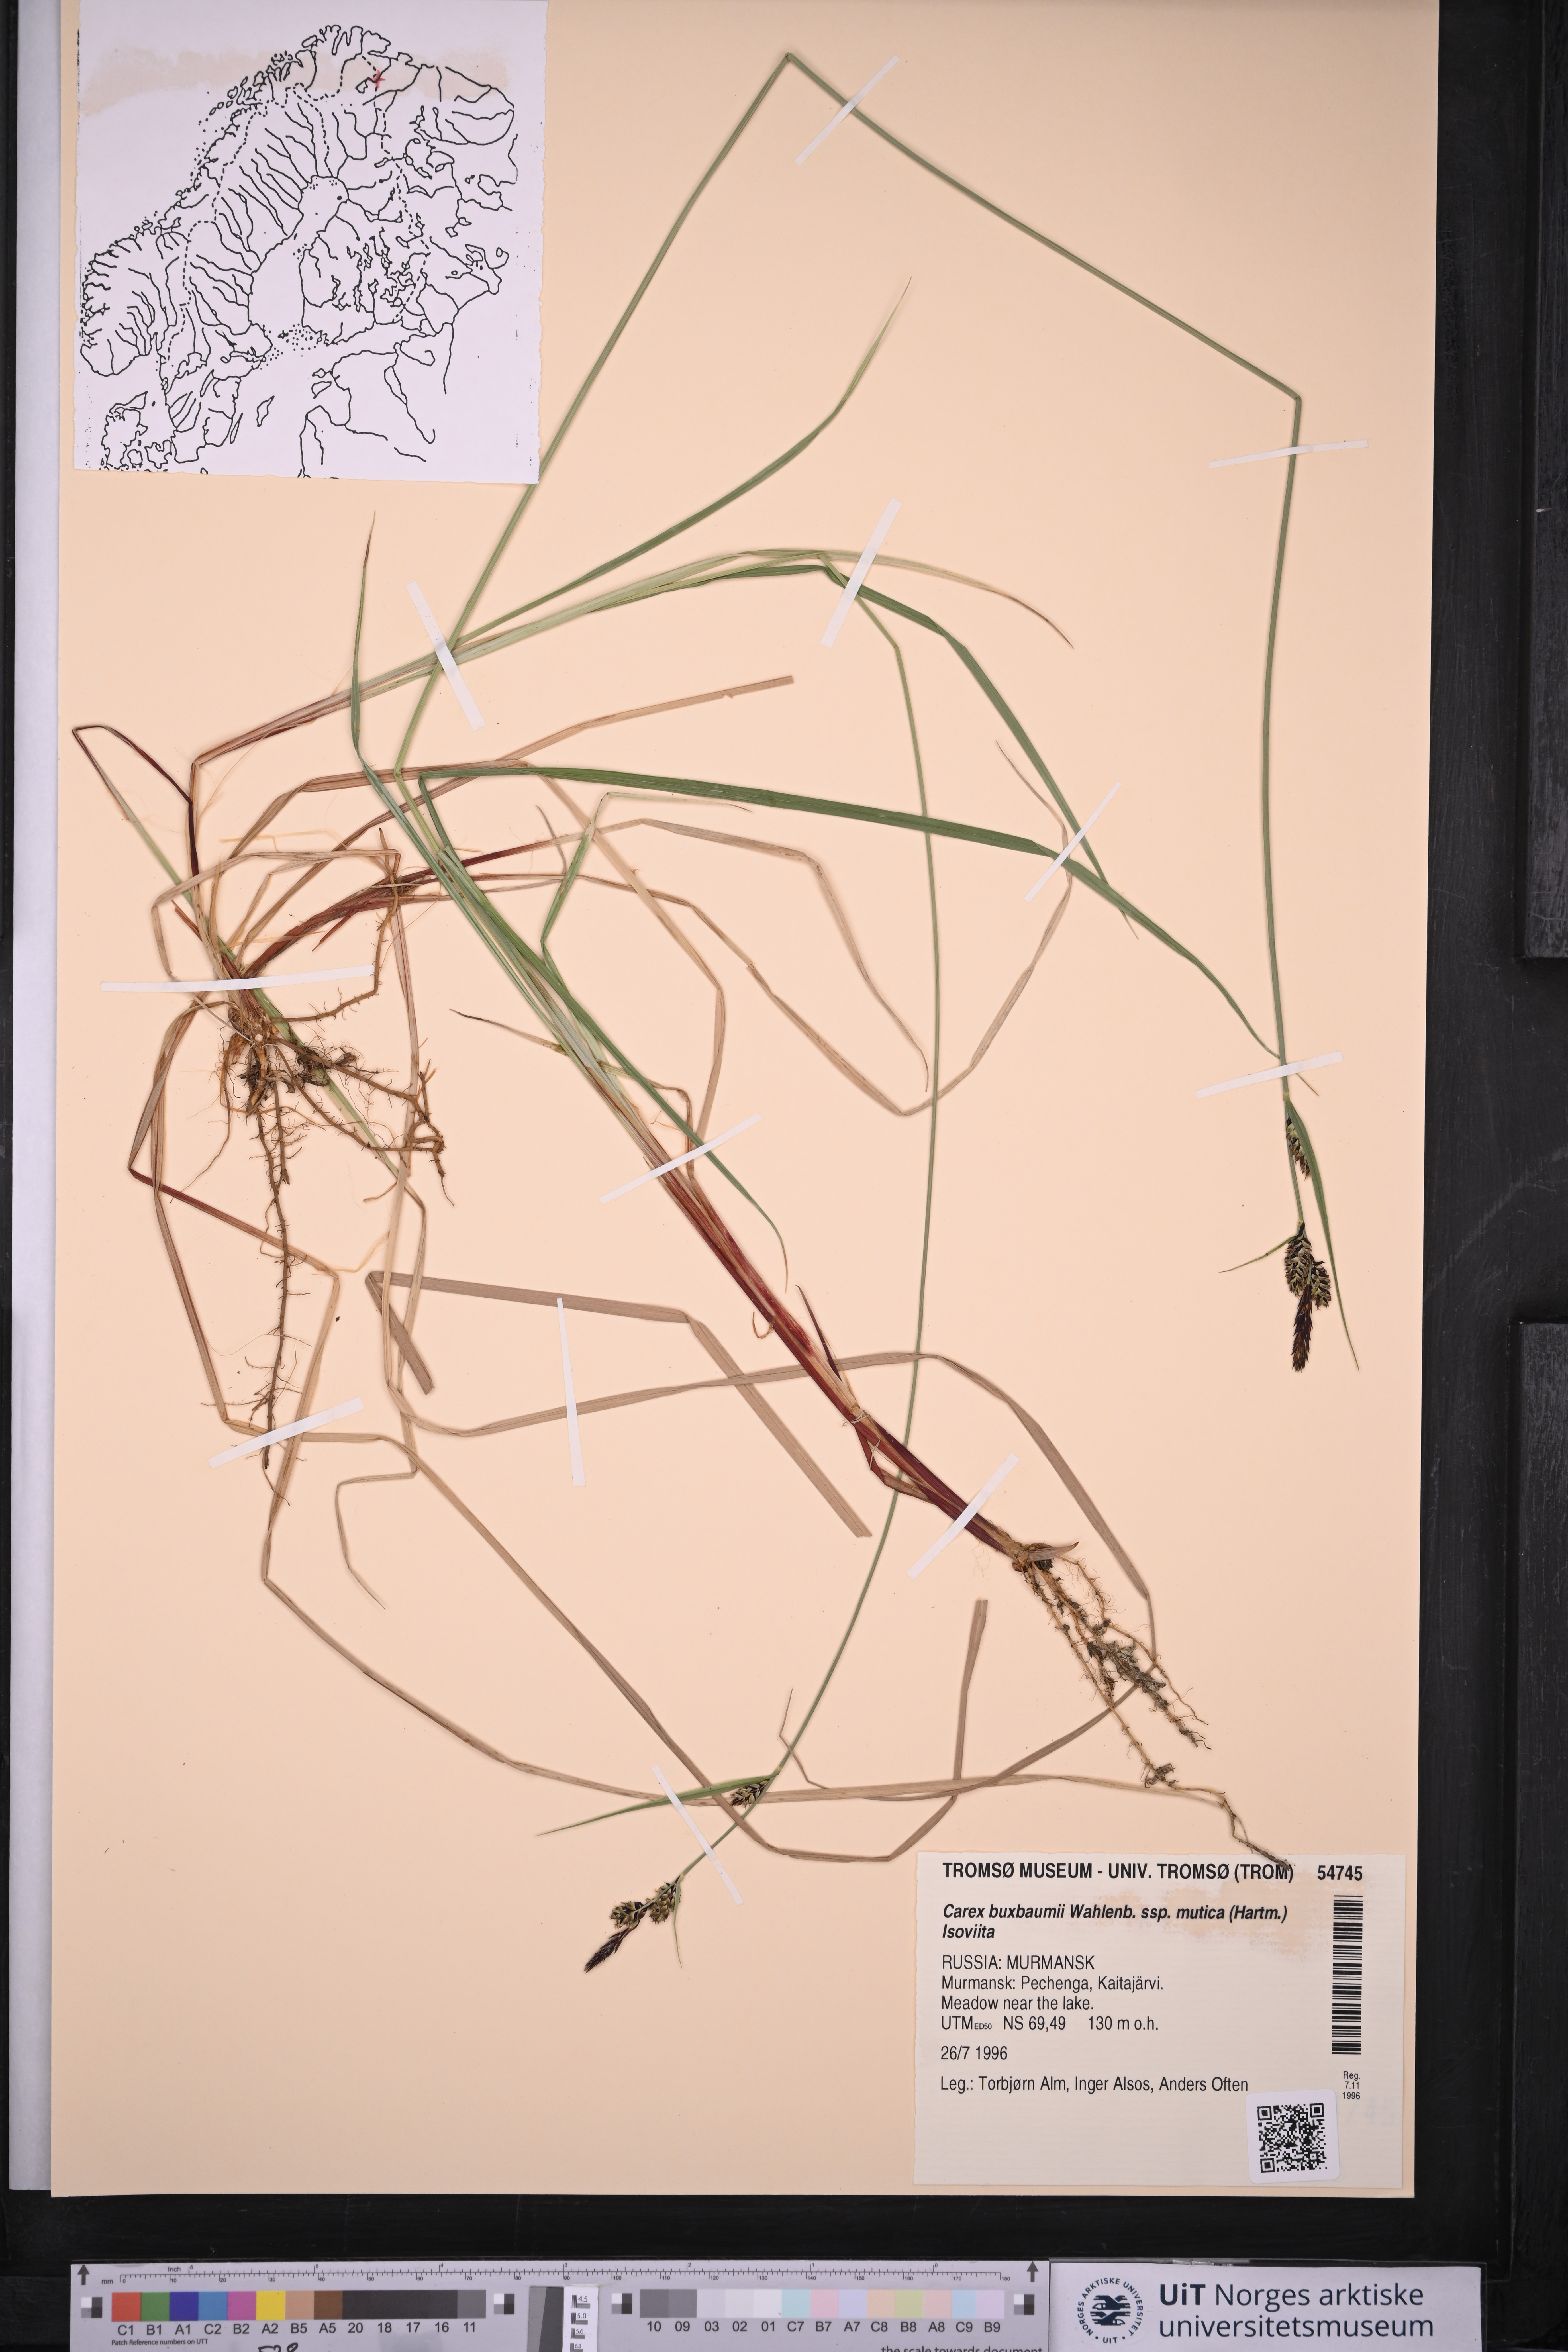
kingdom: Plantae
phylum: Tracheophyta
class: Liliopsida
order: Poales
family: Cyperaceae
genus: Carex
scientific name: Carex adelostoma
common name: Circumpolar sedge
